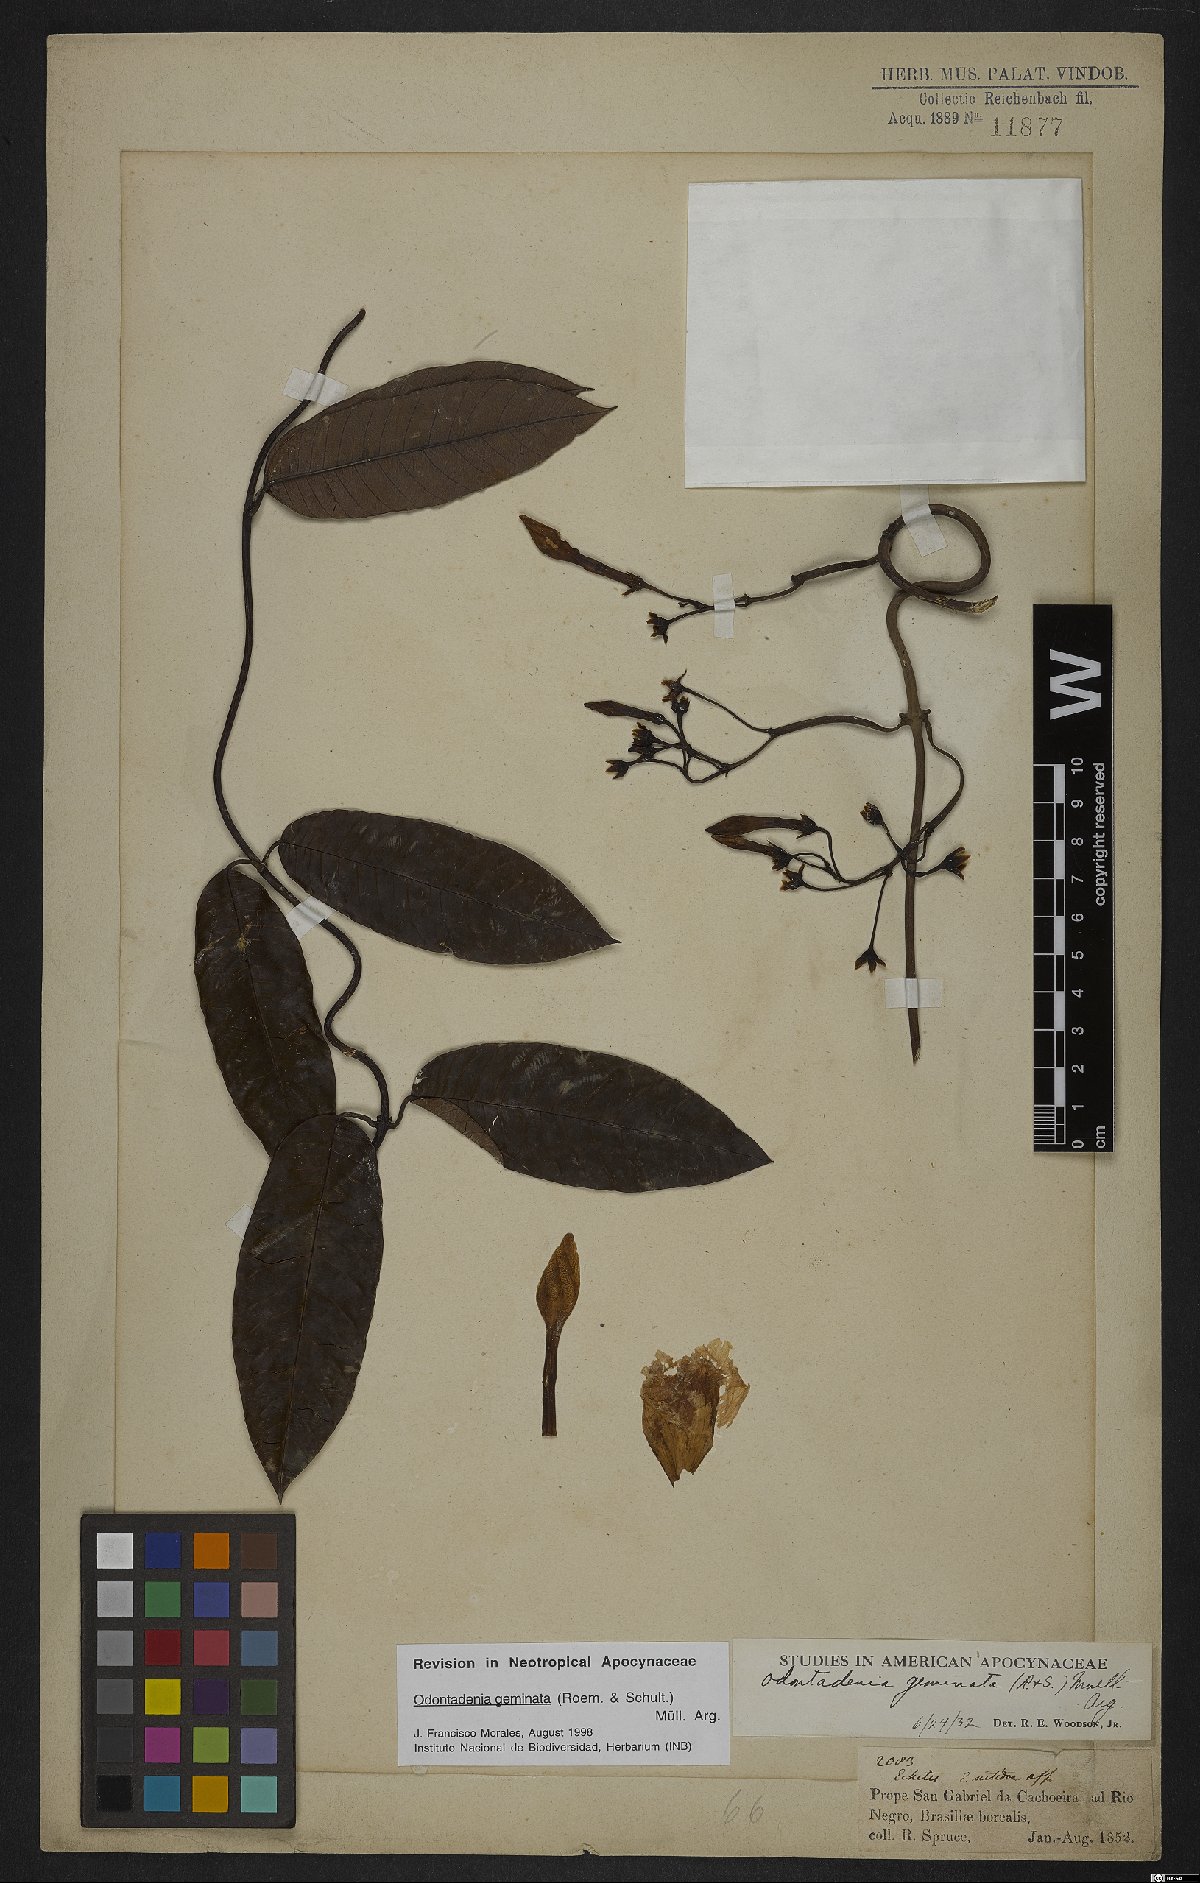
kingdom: Plantae
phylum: Tracheophyta
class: Magnoliopsida
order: Gentianales
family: Apocynaceae
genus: Odontadenia
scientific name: Odontadenia geminata
